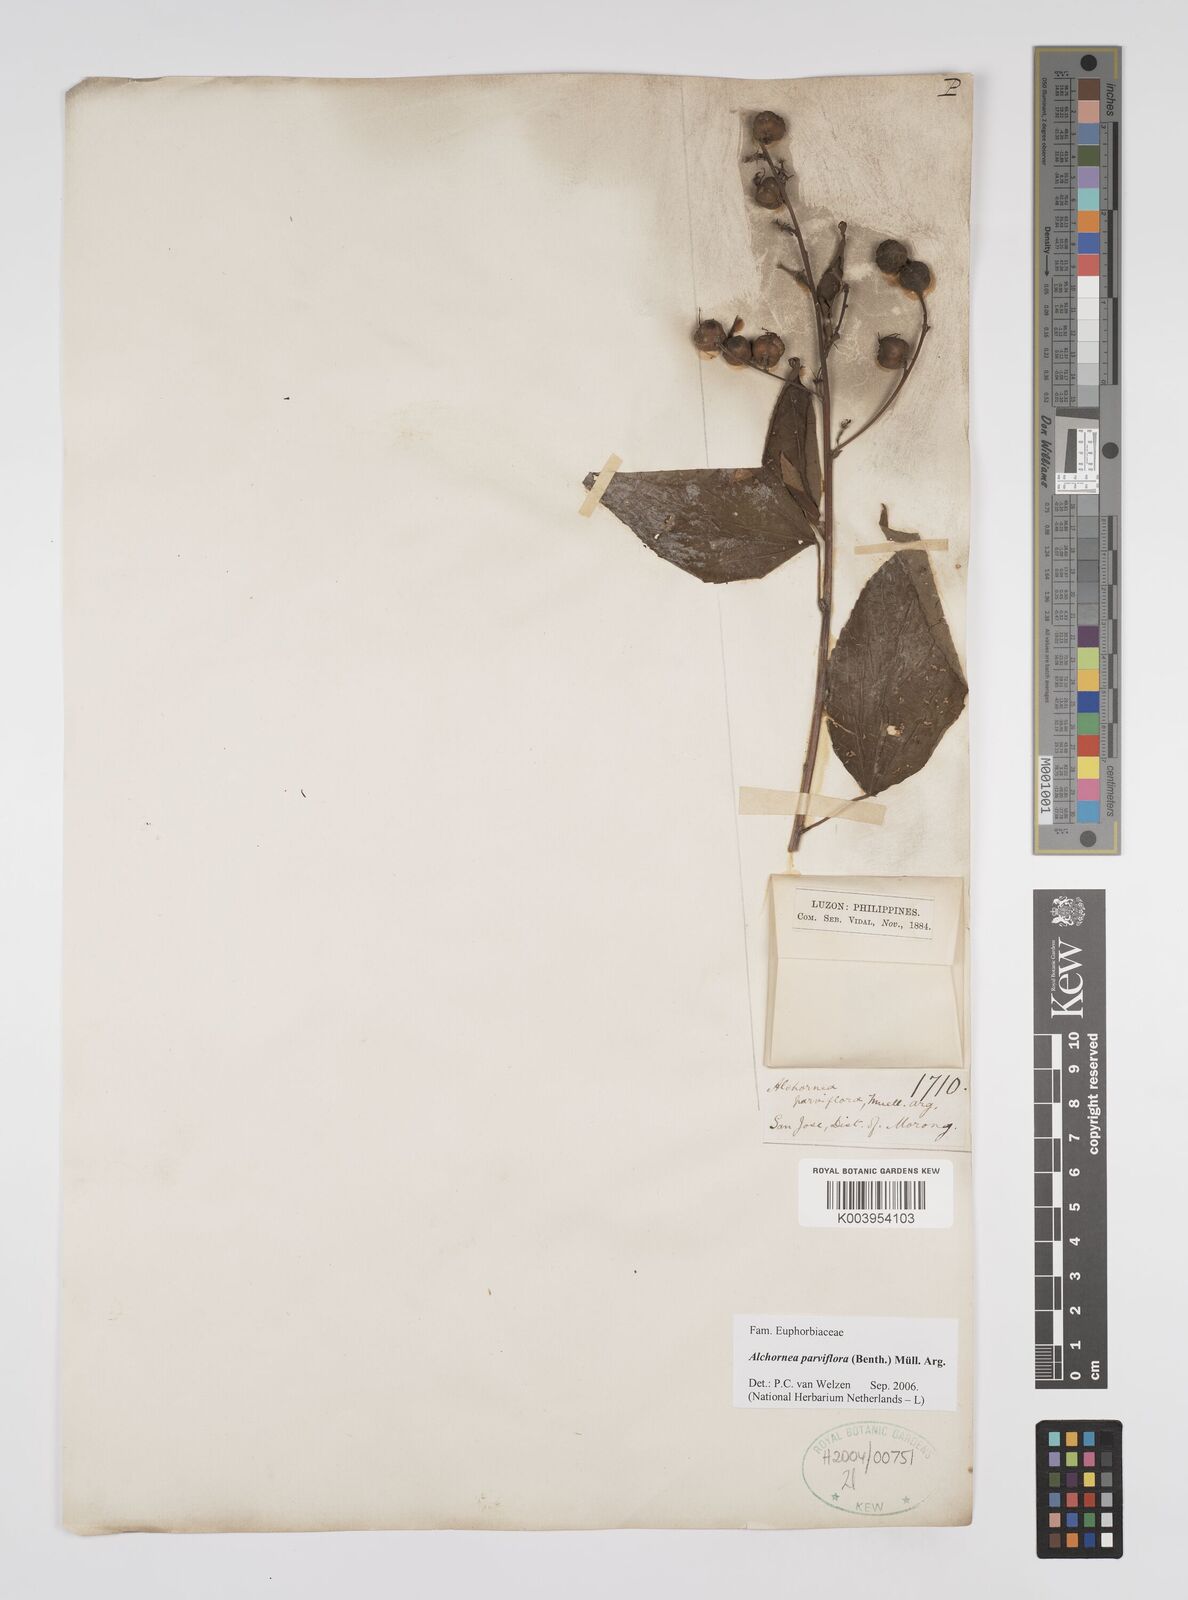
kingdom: Plantae
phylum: Tracheophyta
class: Magnoliopsida
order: Malpighiales
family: Euphorbiaceae
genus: Alchornea
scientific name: Alchornea parviflora
